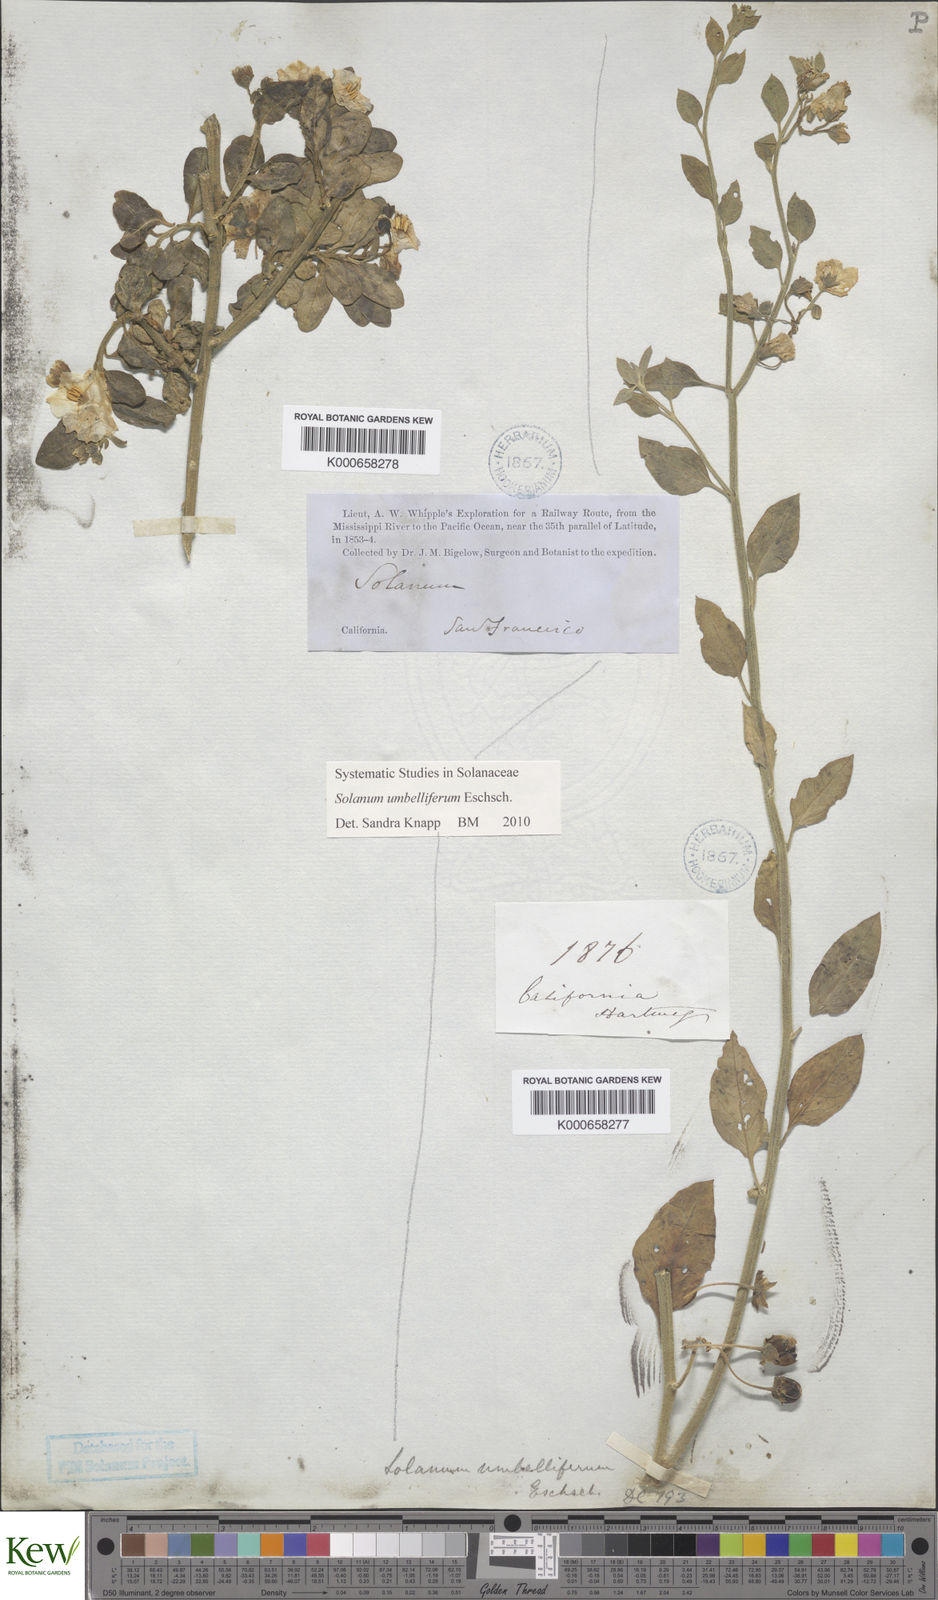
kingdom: Plantae
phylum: Tracheophyta
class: Magnoliopsida
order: Solanales
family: Solanaceae
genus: Solanum
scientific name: Solanum umbelliferum
